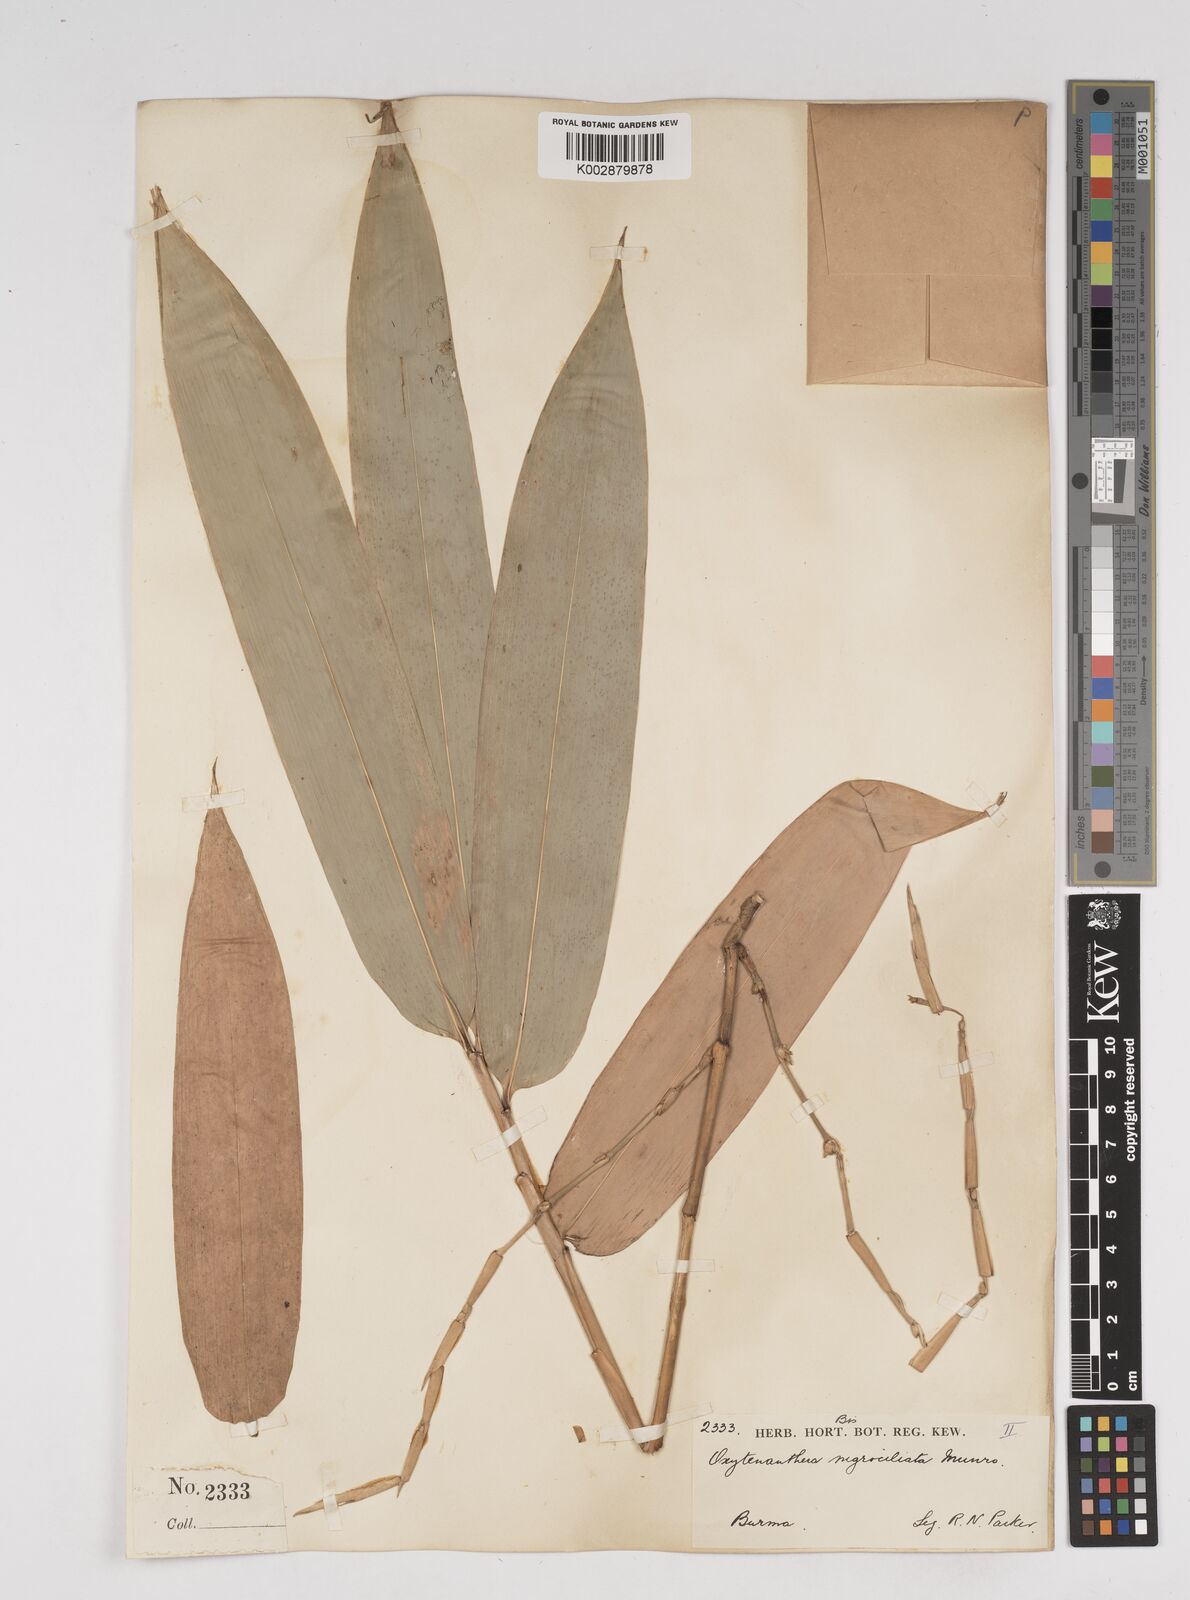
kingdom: Plantae
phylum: Tracheophyta
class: Liliopsida
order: Poales
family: Poaceae
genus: Gigantochloa
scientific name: Gigantochloa
